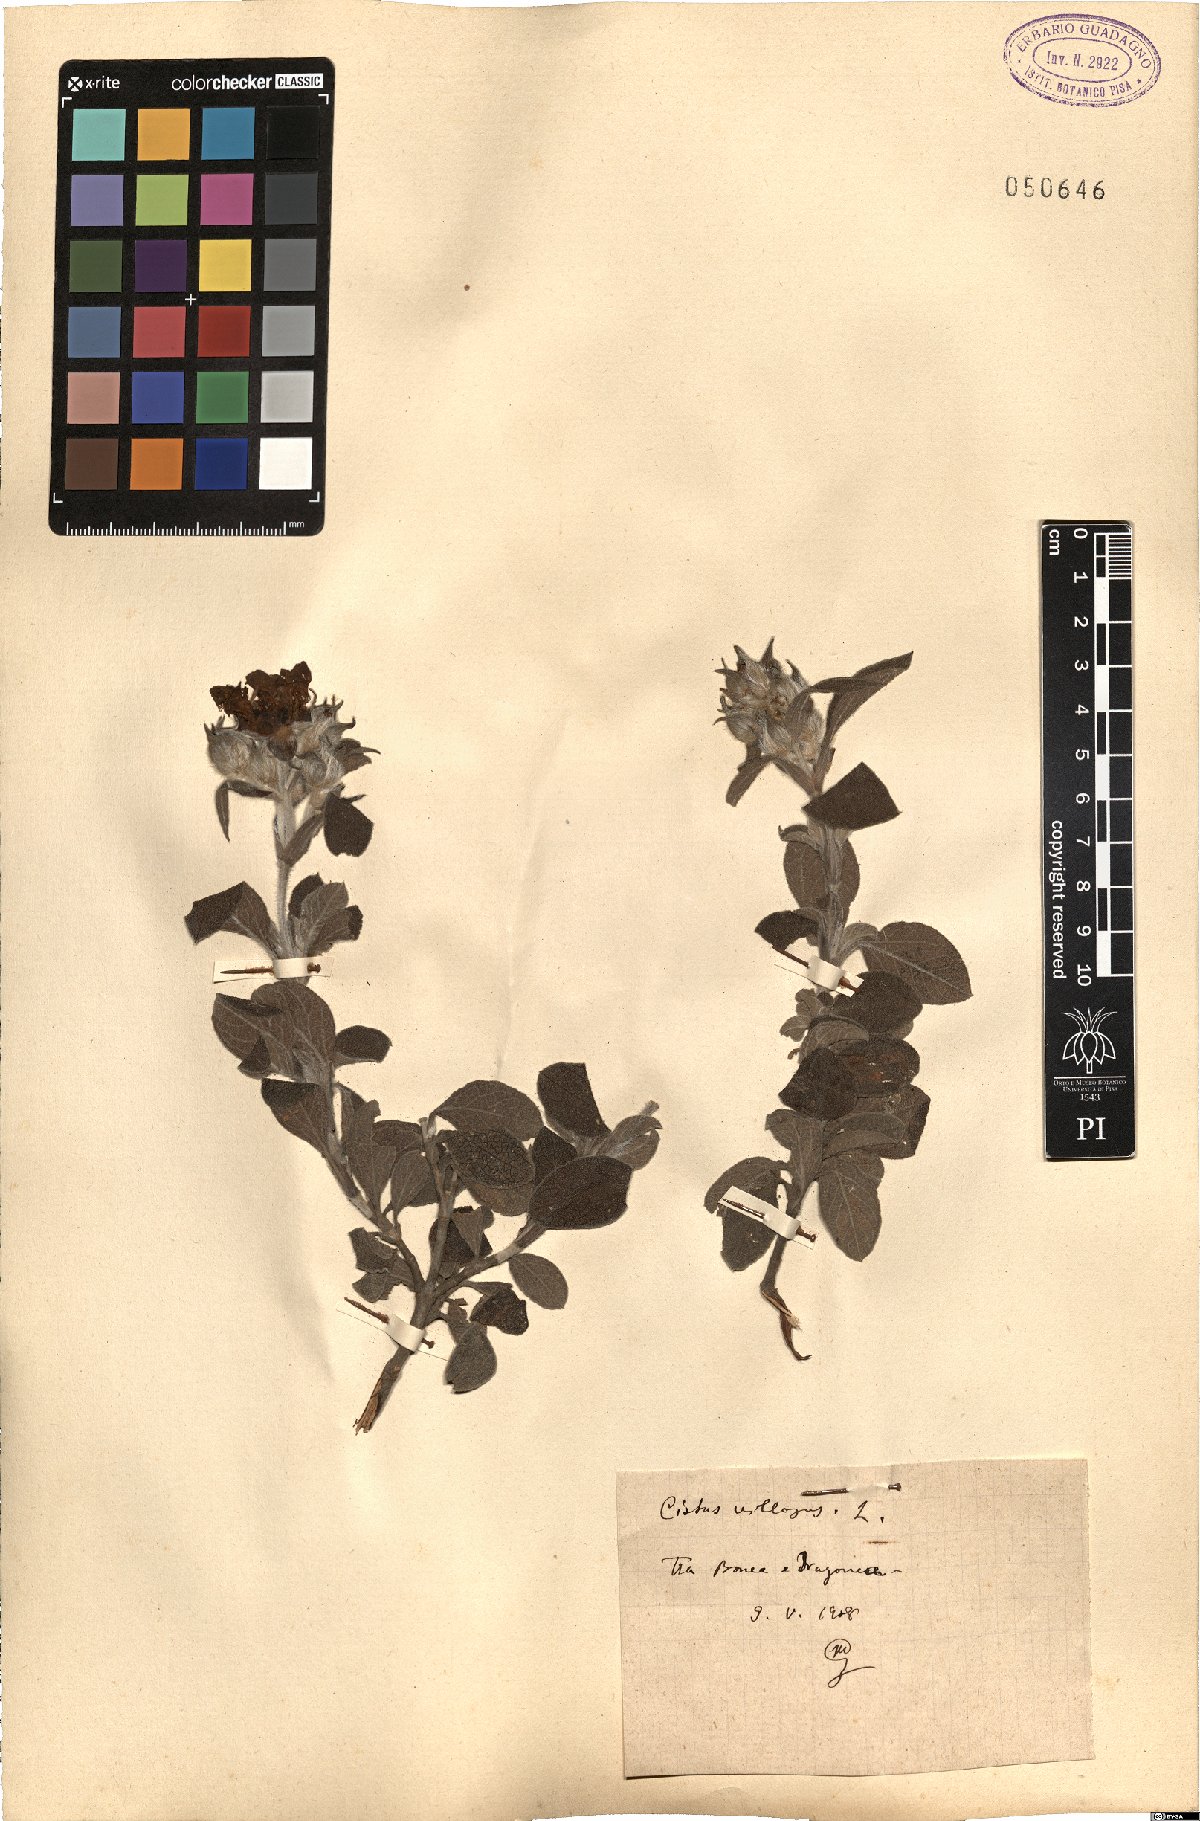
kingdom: Plantae
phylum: Tracheophyta
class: Magnoliopsida
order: Malvales
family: Cistaceae
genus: Cistus
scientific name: Cistus creticus
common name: Cretan rockrose
